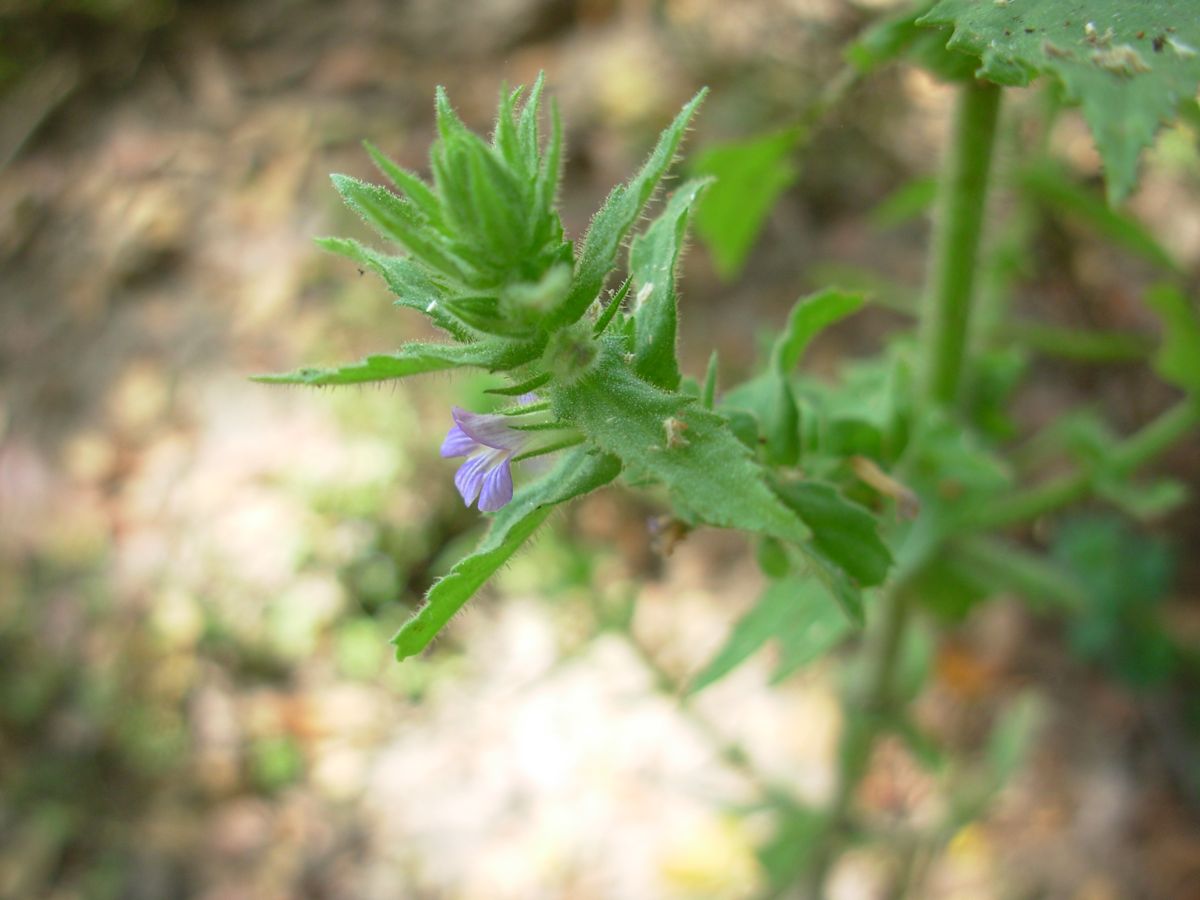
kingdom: Plantae
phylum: Tracheophyta
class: Magnoliopsida
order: Lamiales
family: Plantaginaceae
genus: Stemodia
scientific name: Stemodia durantifolia
